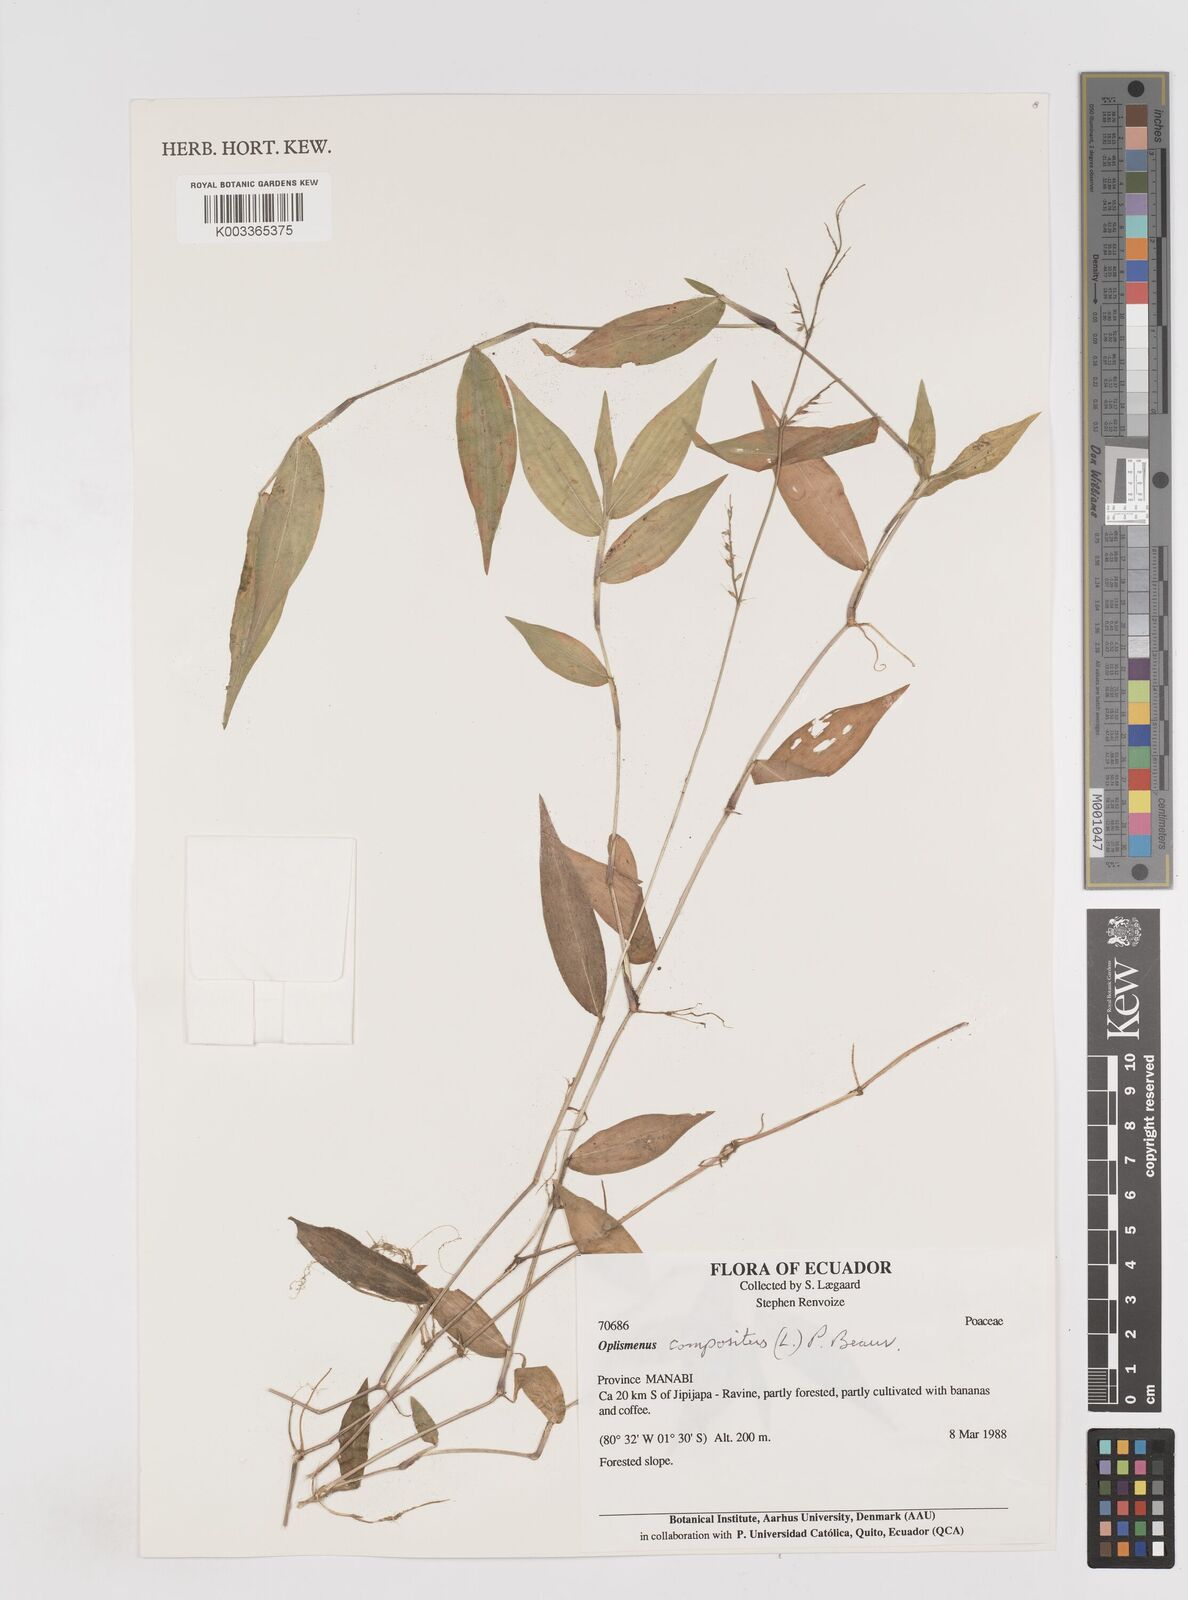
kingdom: Plantae
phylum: Tracheophyta
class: Liliopsida
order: Poales
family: Poaceae
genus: Oplismenus
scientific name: Oplismenus compositus
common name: Running mountain grass
